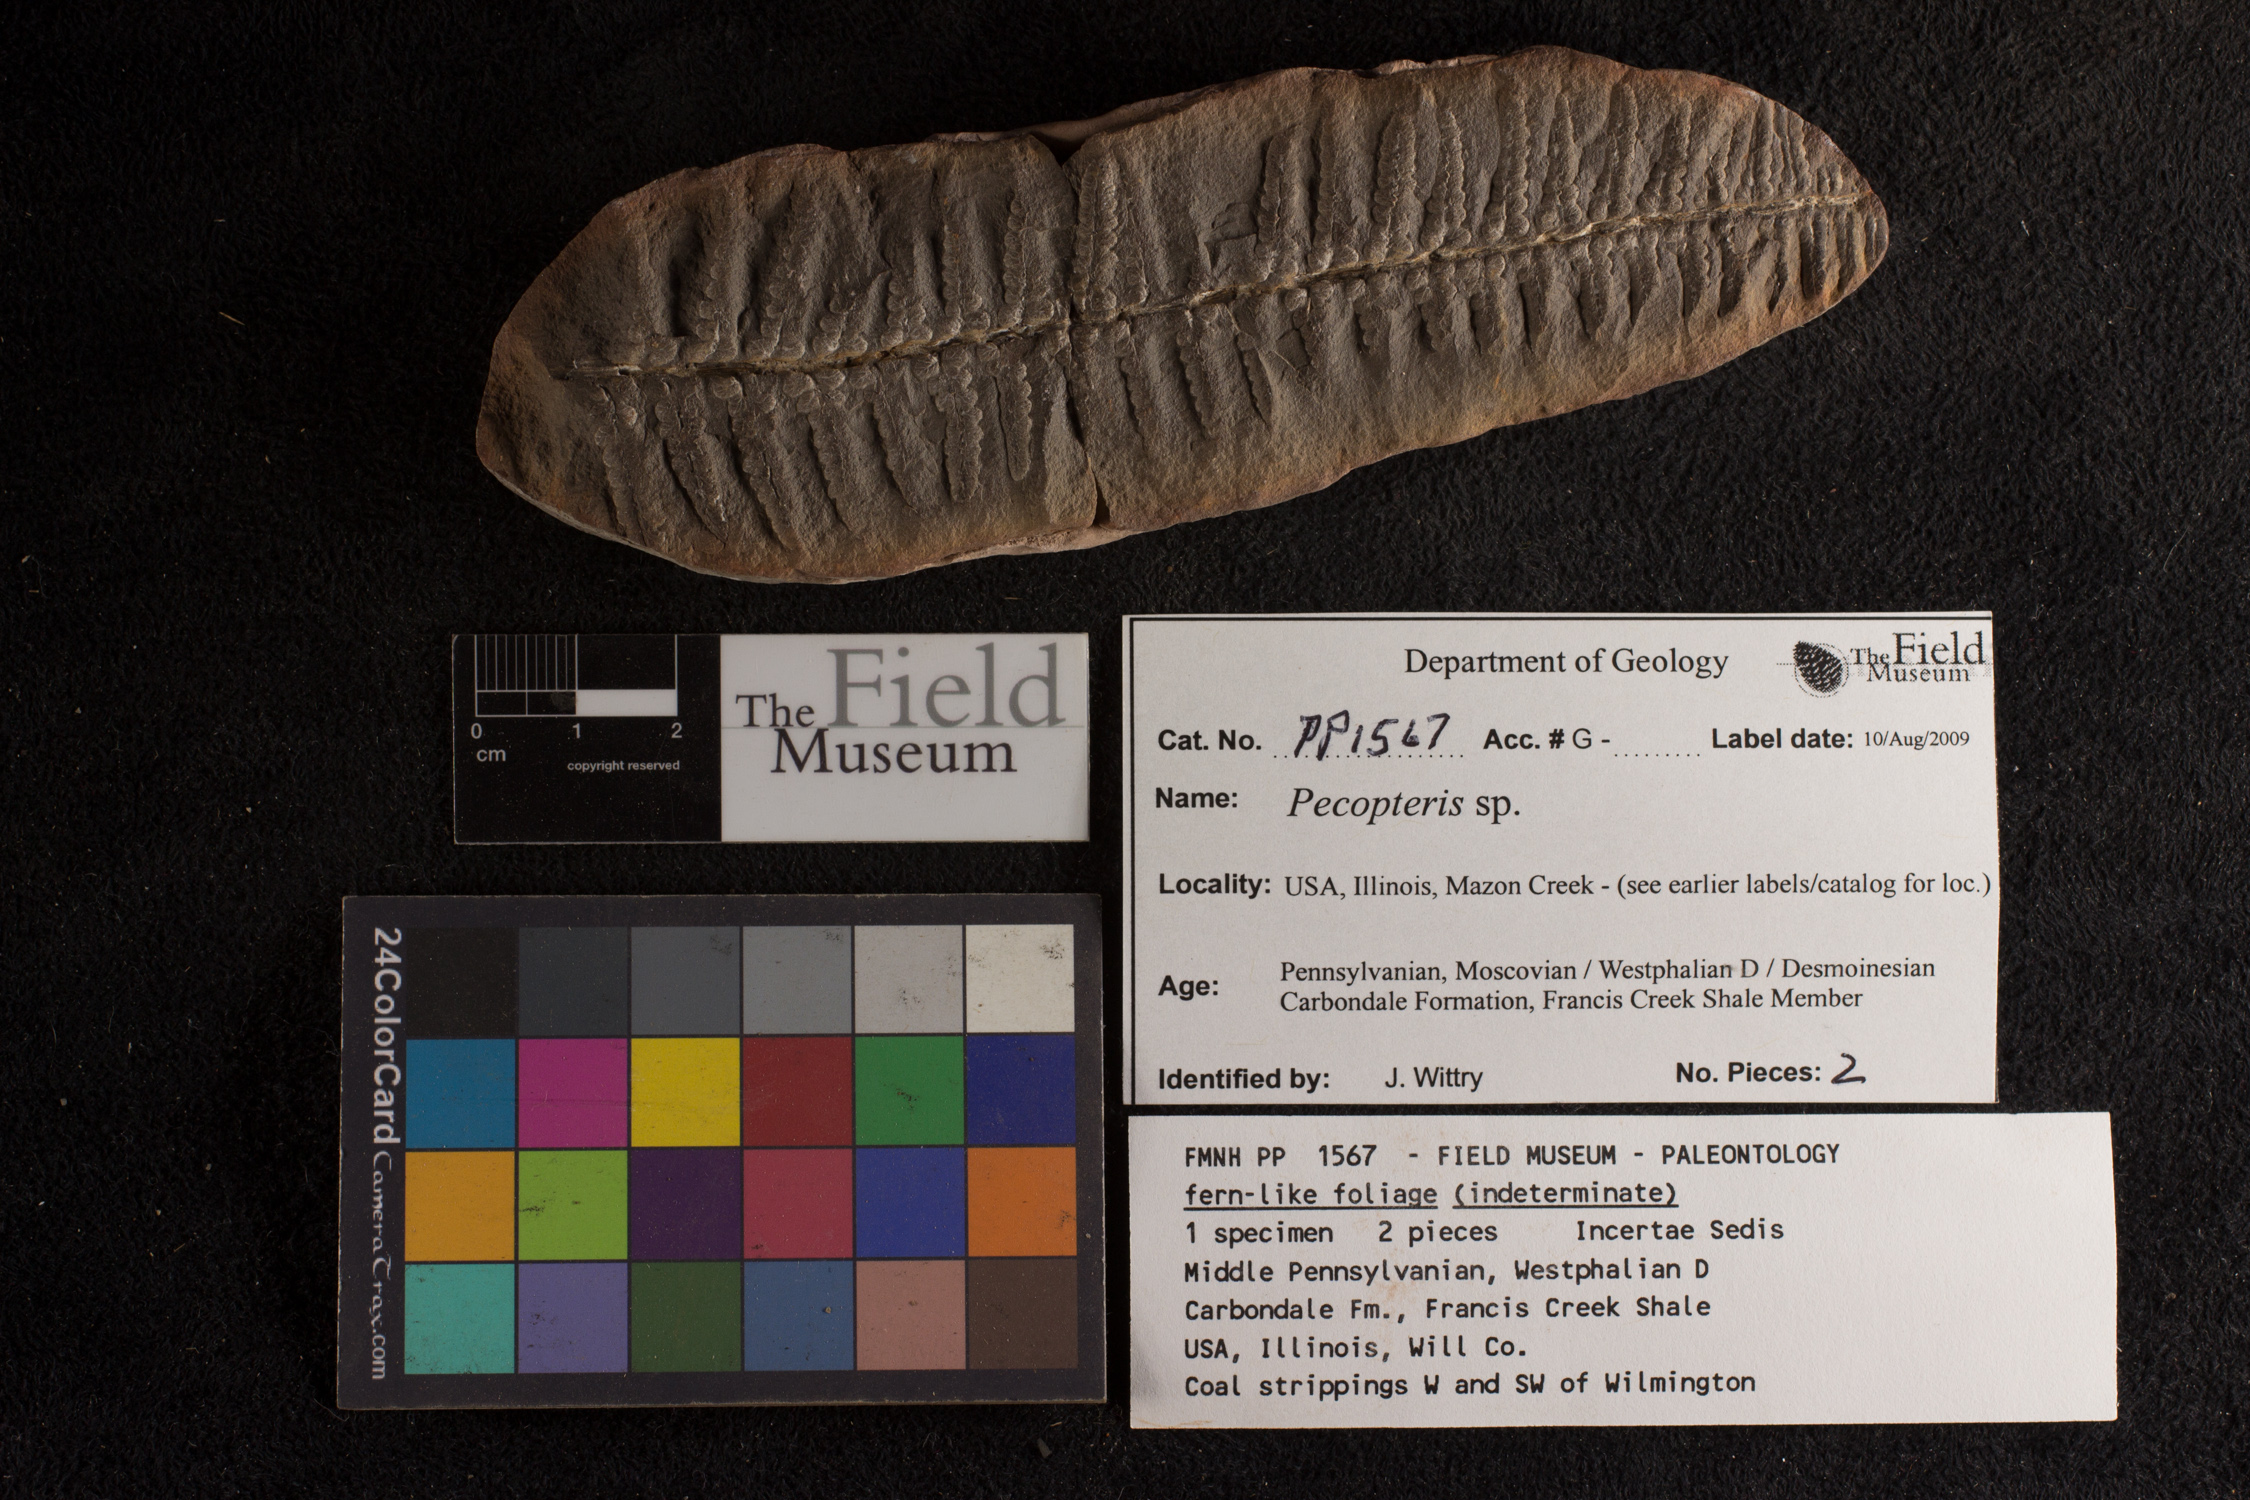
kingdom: Plantae
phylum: Tracheophyta
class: Polypodiopsida
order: Marattiales
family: Asterothecaceae
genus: Pecopteris
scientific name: Pecopteris
